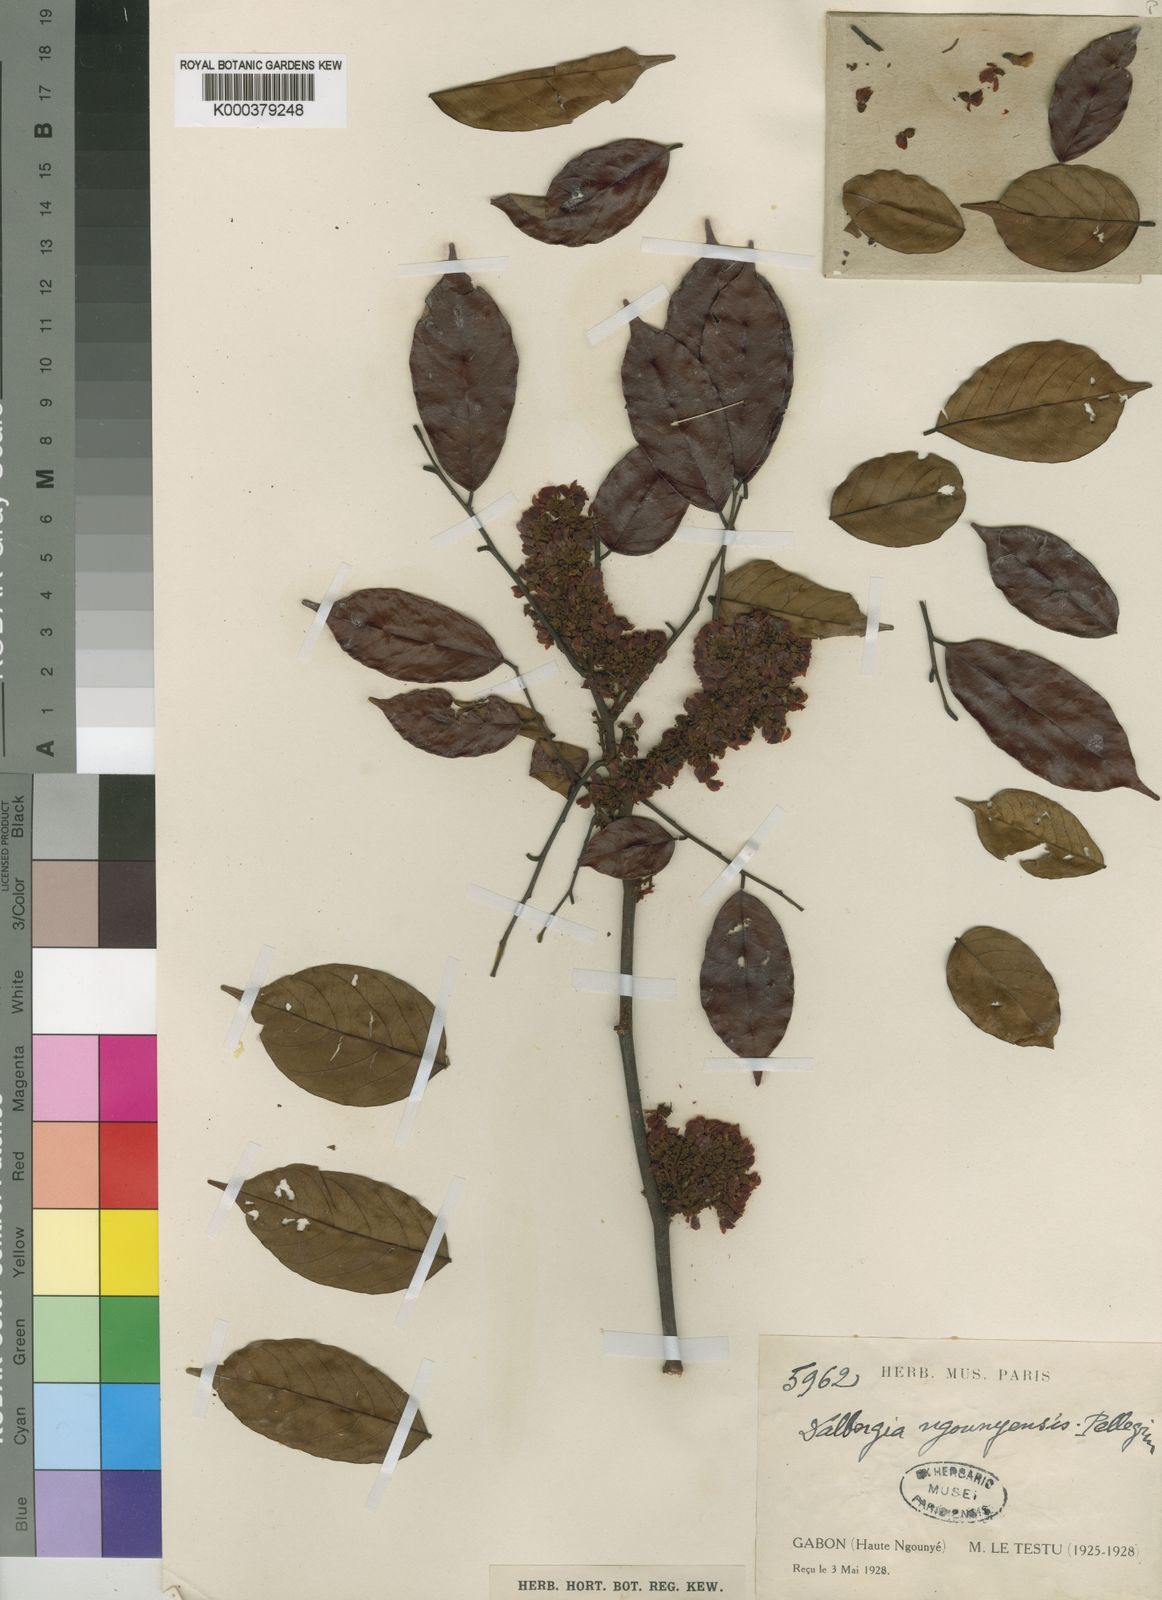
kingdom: Plantae
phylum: Tracheophyta
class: Magnoliopsida
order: Fabales
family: Fabaceae
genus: Dalbergia
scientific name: Dalbergia ngounyensis
